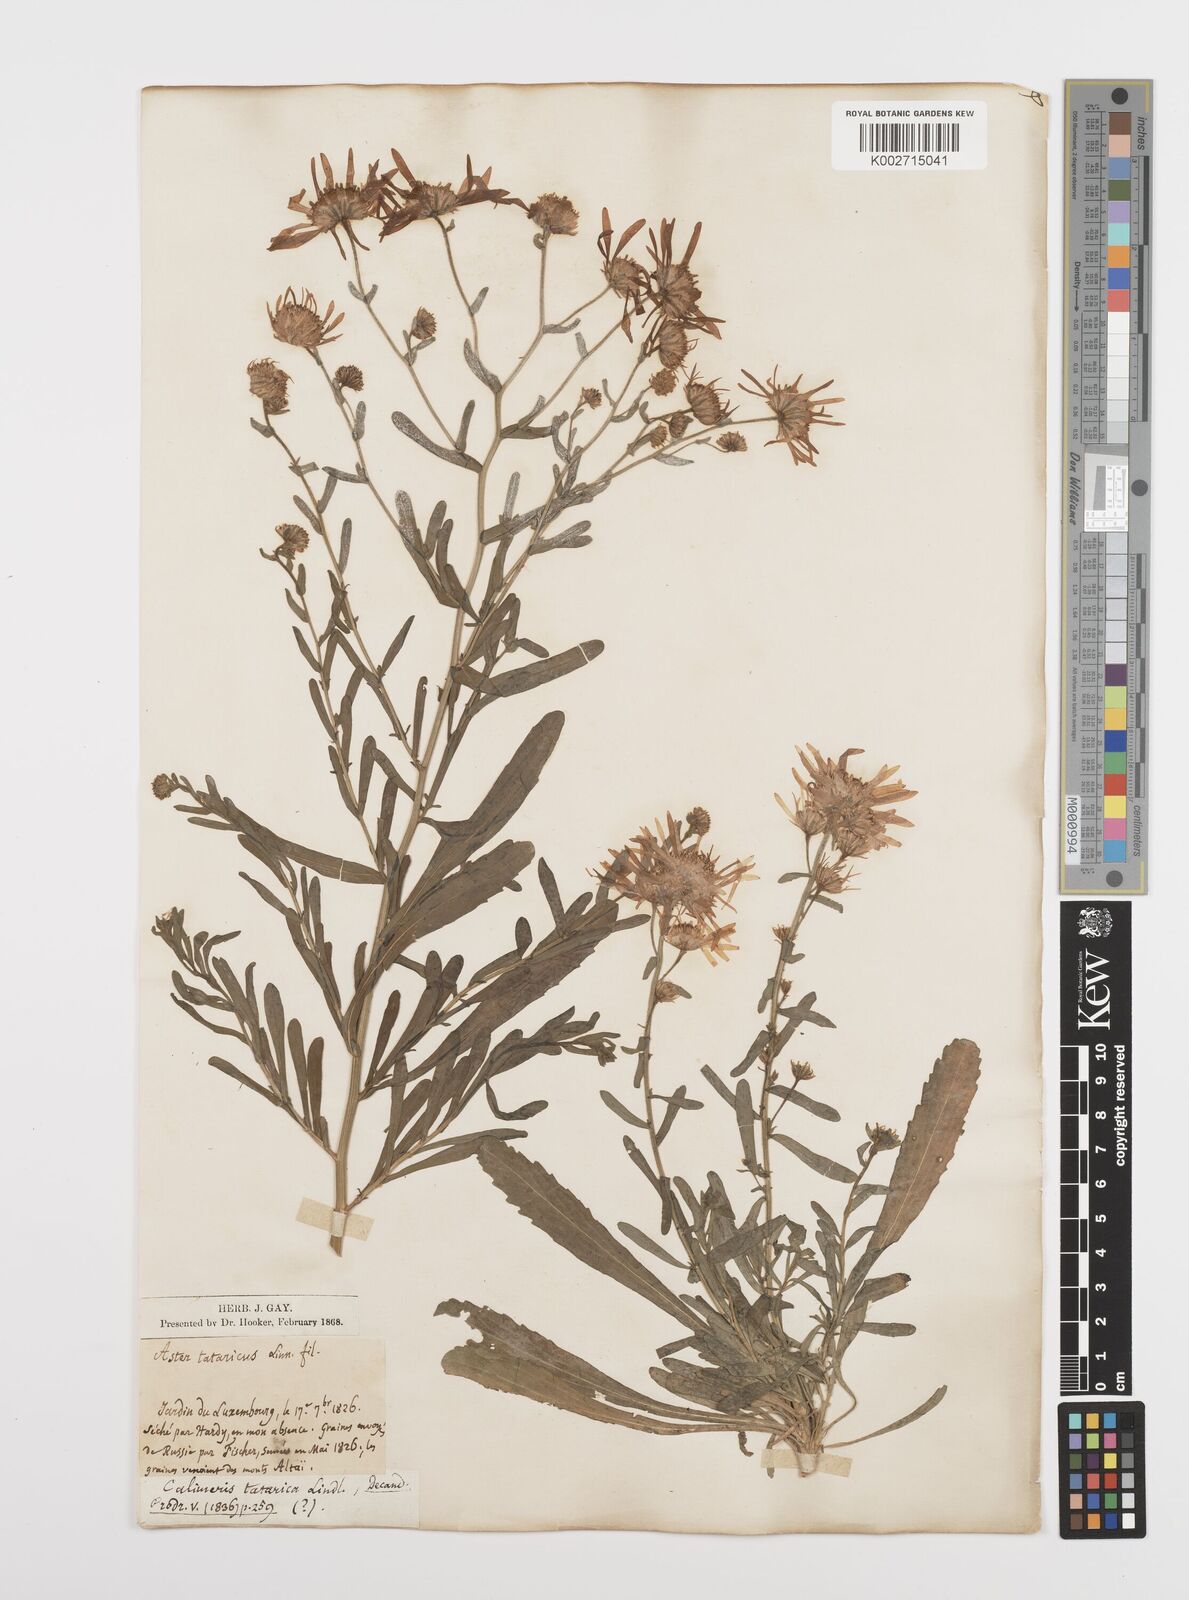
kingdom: Plantae
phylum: Tracheophyta
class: Magnoliopsida
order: Asterales
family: Asteraceae
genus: Heteropappus
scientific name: Heteropappus altaicus
